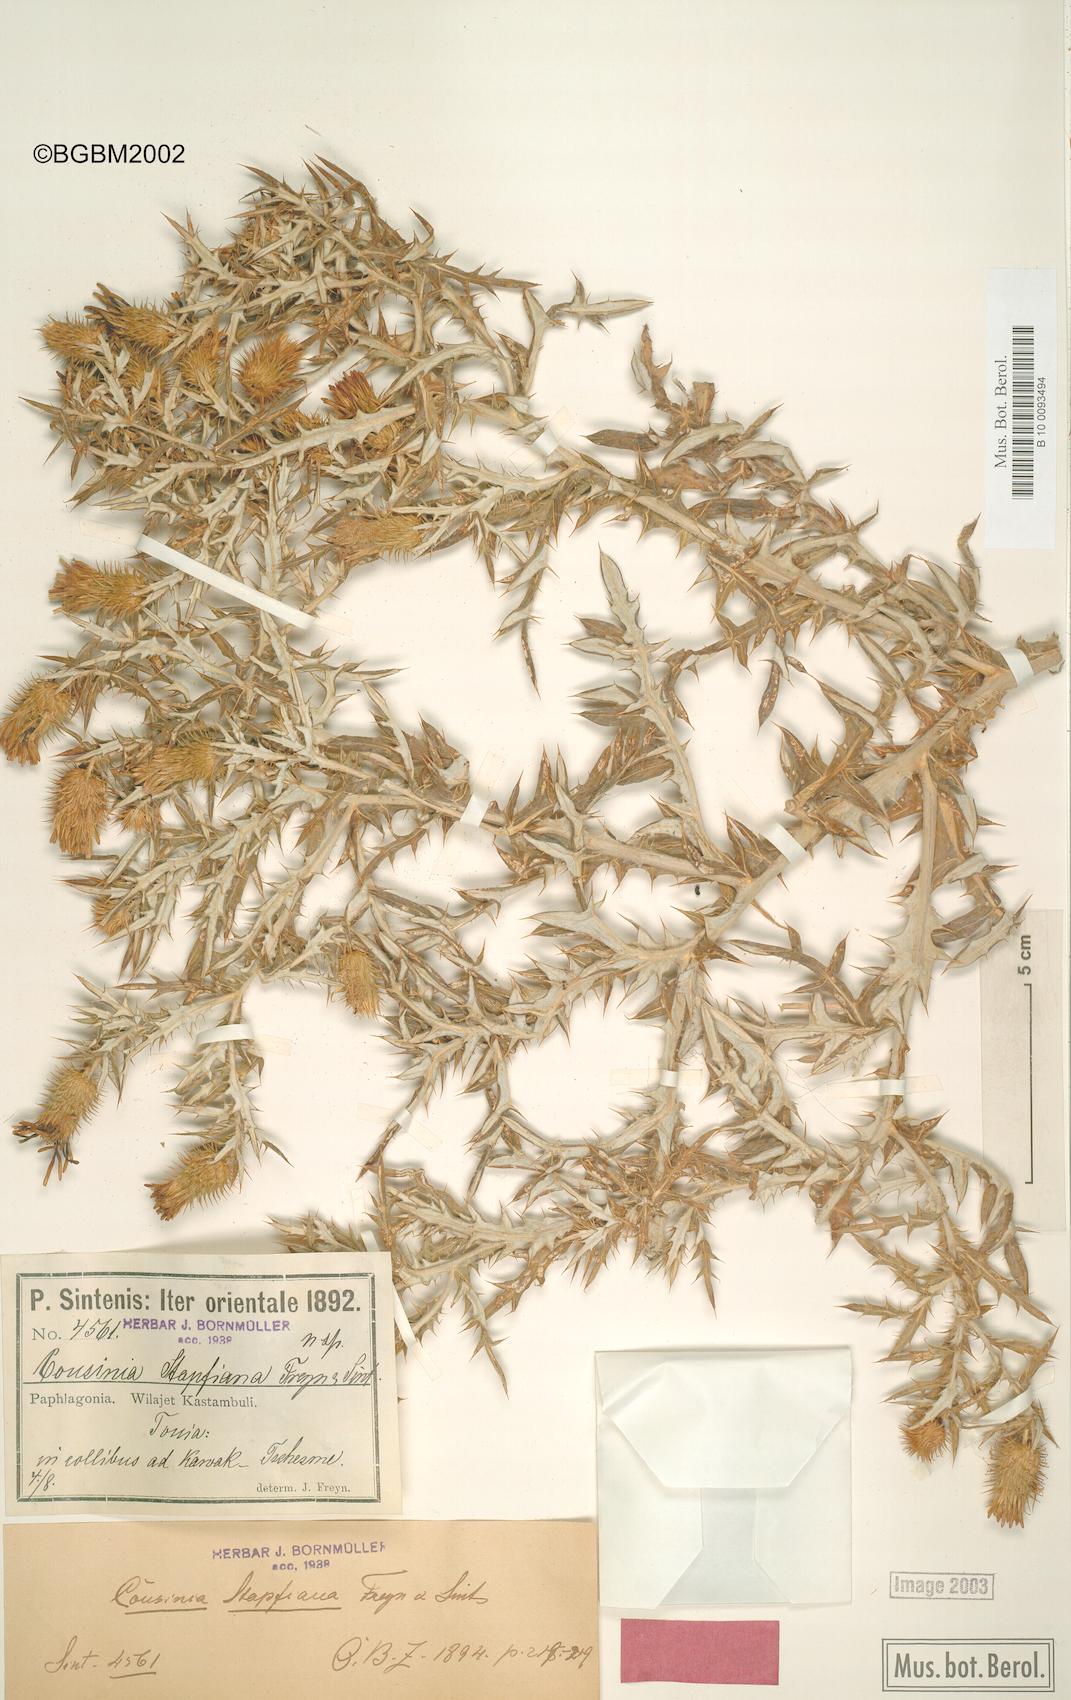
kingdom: Plantae
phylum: Tracheophyta
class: Magnoliopsida
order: Asterales
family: Asteraceae
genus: Cousinia
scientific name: Cousinia stapfiana
